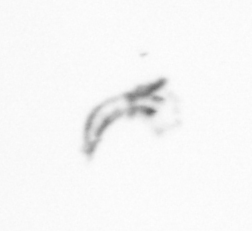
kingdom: Chromista
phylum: Ochrophyta
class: Bacillariophyceae
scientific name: Bacillariophyceae
